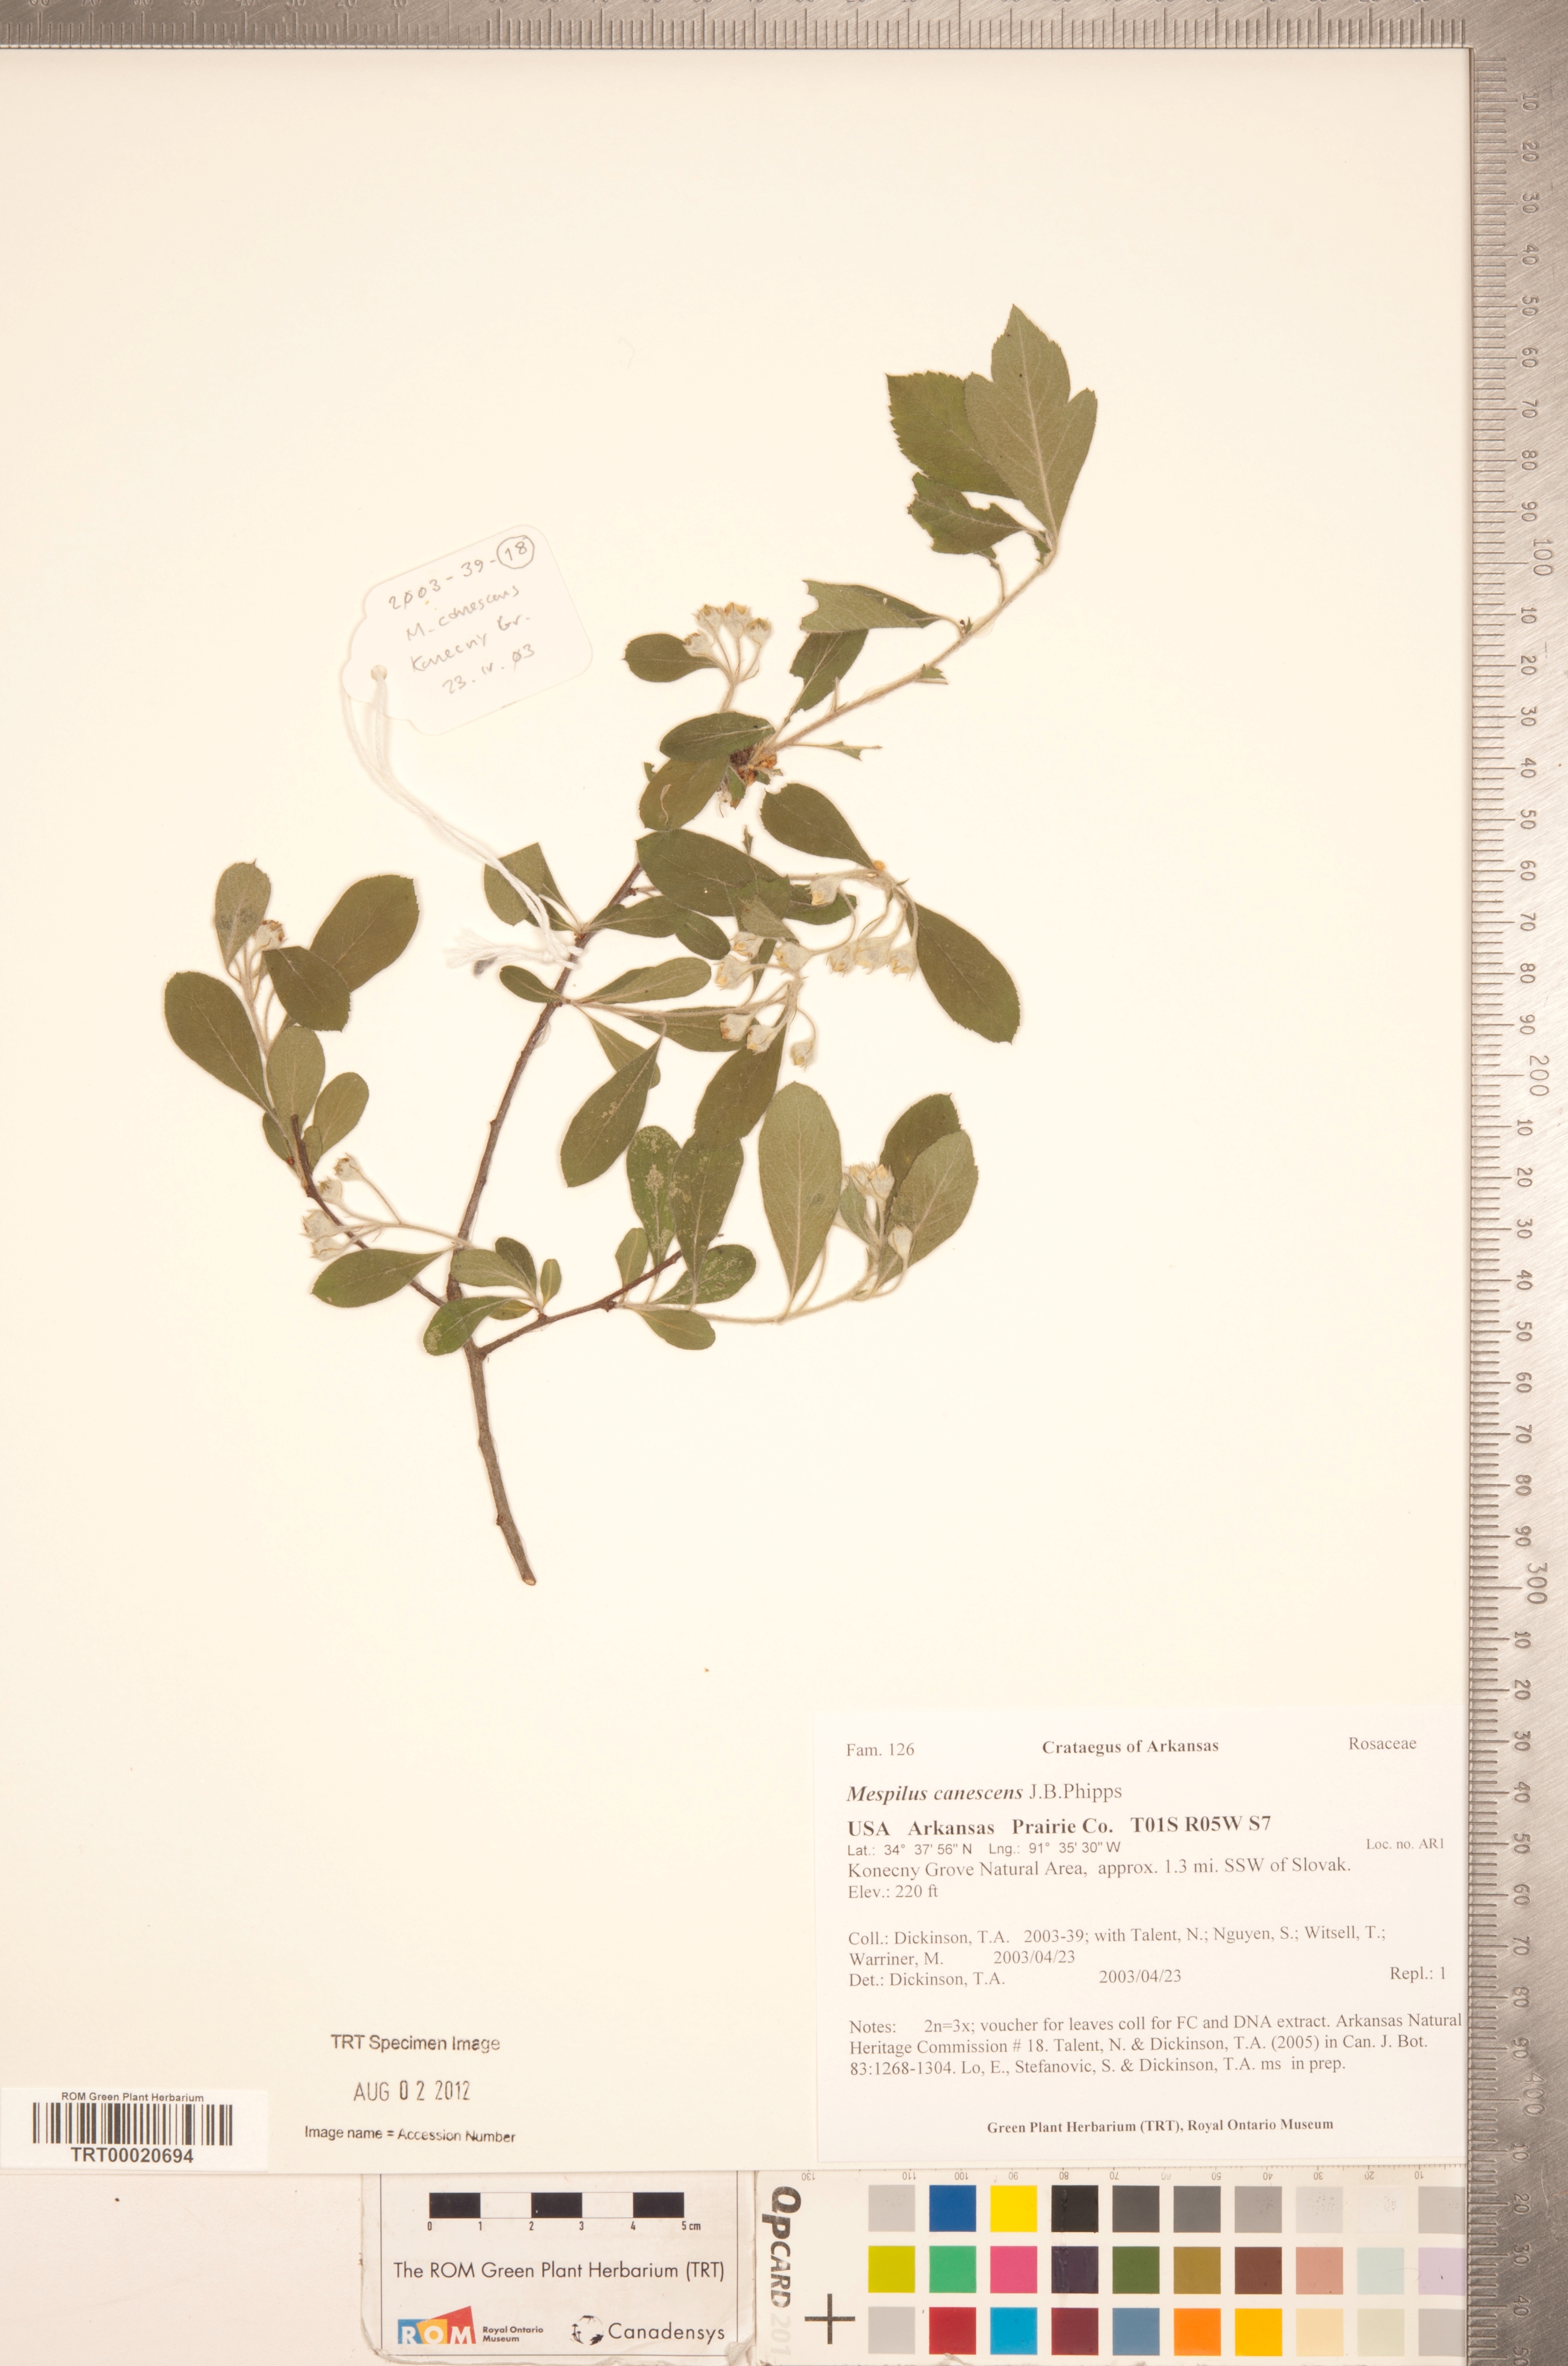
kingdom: Plantae
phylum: Tracheophyta
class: Magnoliopsida
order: Rosales
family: Rosaceae
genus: Crataemespilus
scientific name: Crataemespilus canescens
